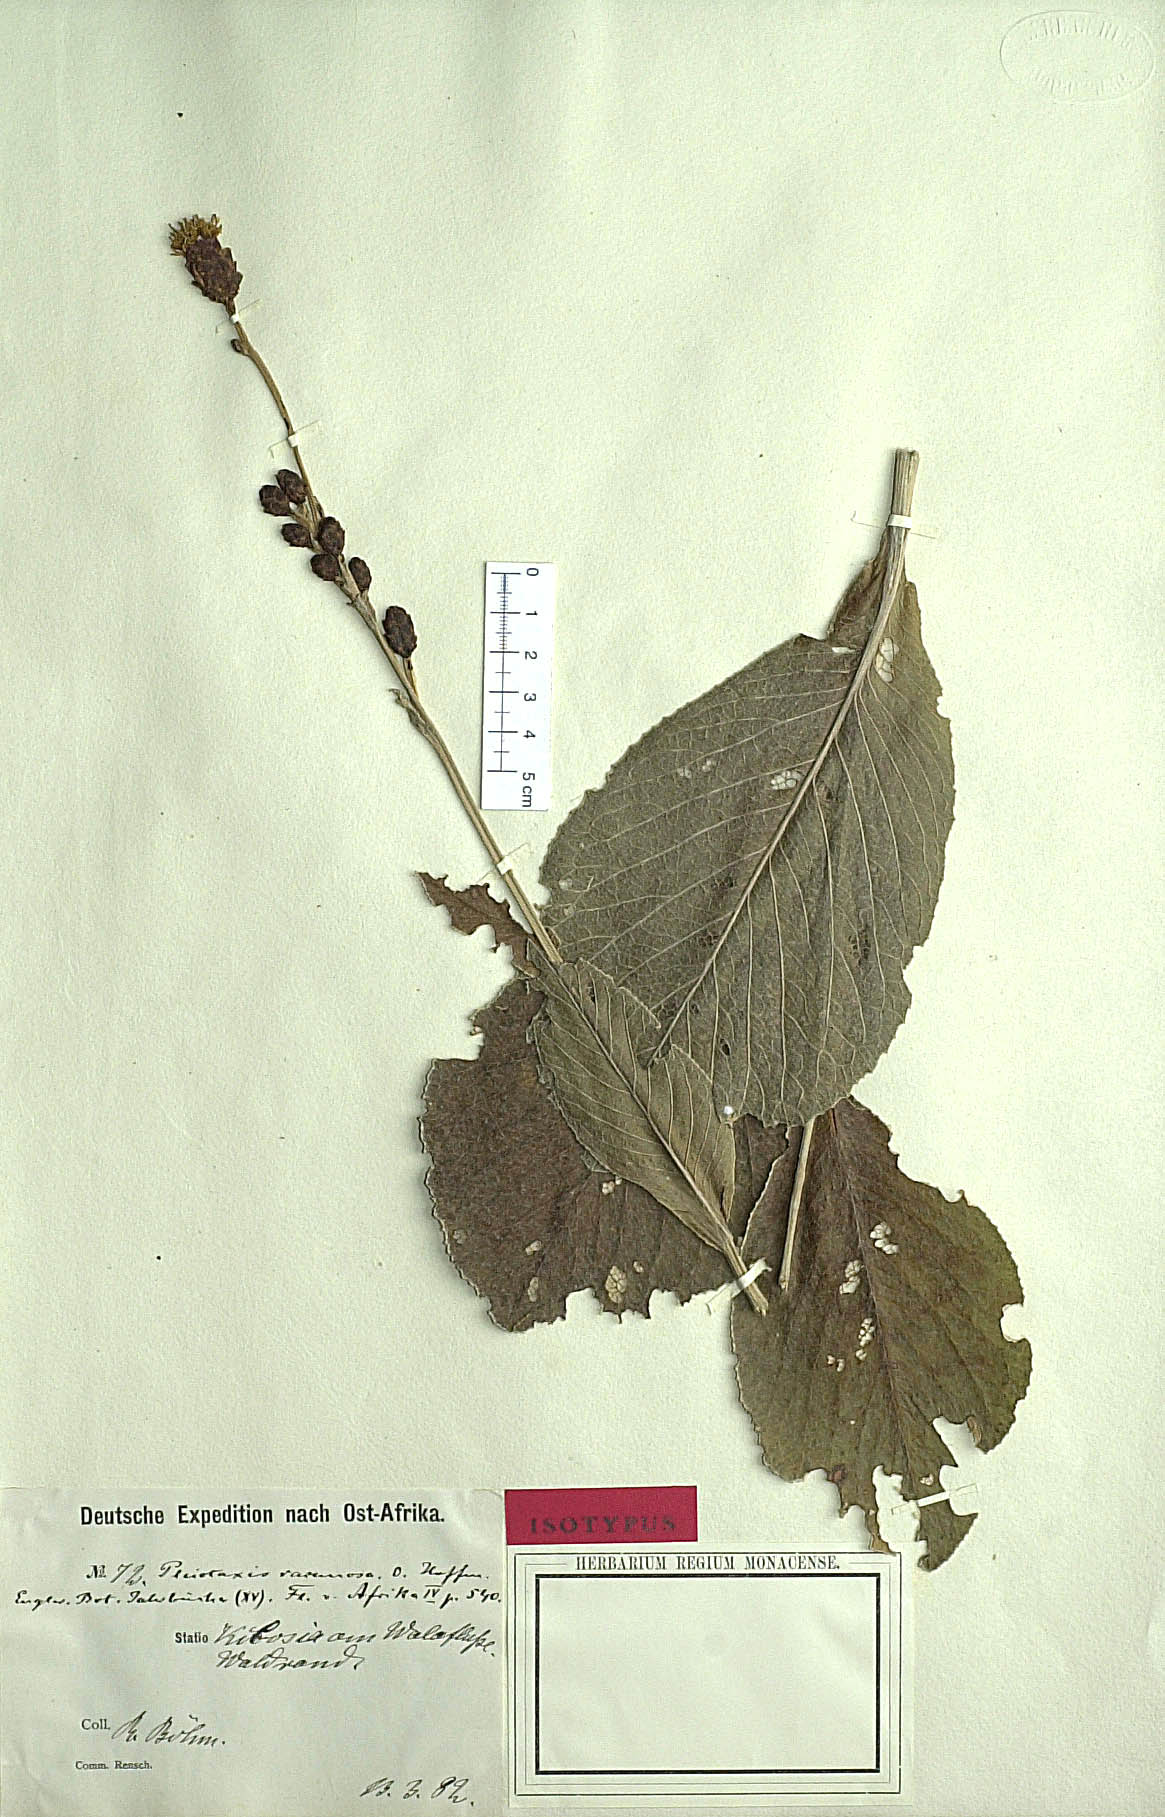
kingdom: Plantae
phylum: Tracheophyta
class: Magnoliopsida
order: Asterales
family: Asteraceae
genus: Pleiotaxis
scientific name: Pleiotaxis racemosa
